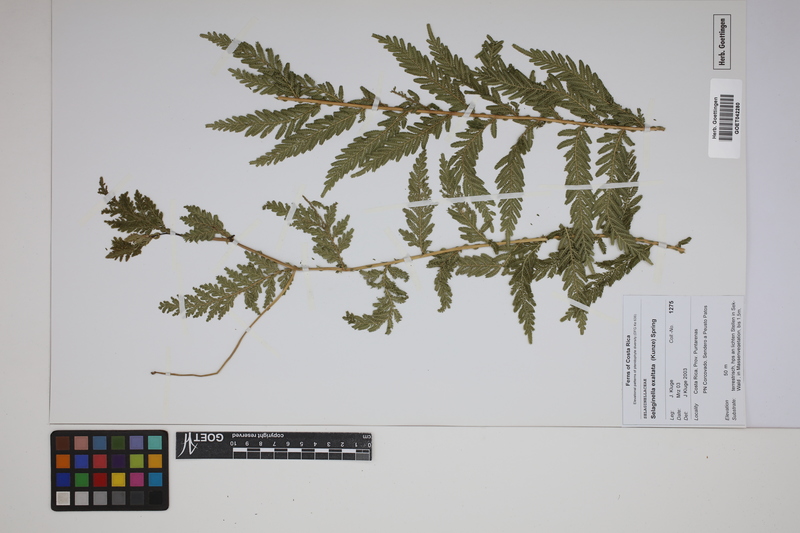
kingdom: Plantae
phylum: Tracheophyta
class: Lycopodiopsida
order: Selaginellales
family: Selaginellaceae
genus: Selaginella
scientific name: Selaginella exaltata
